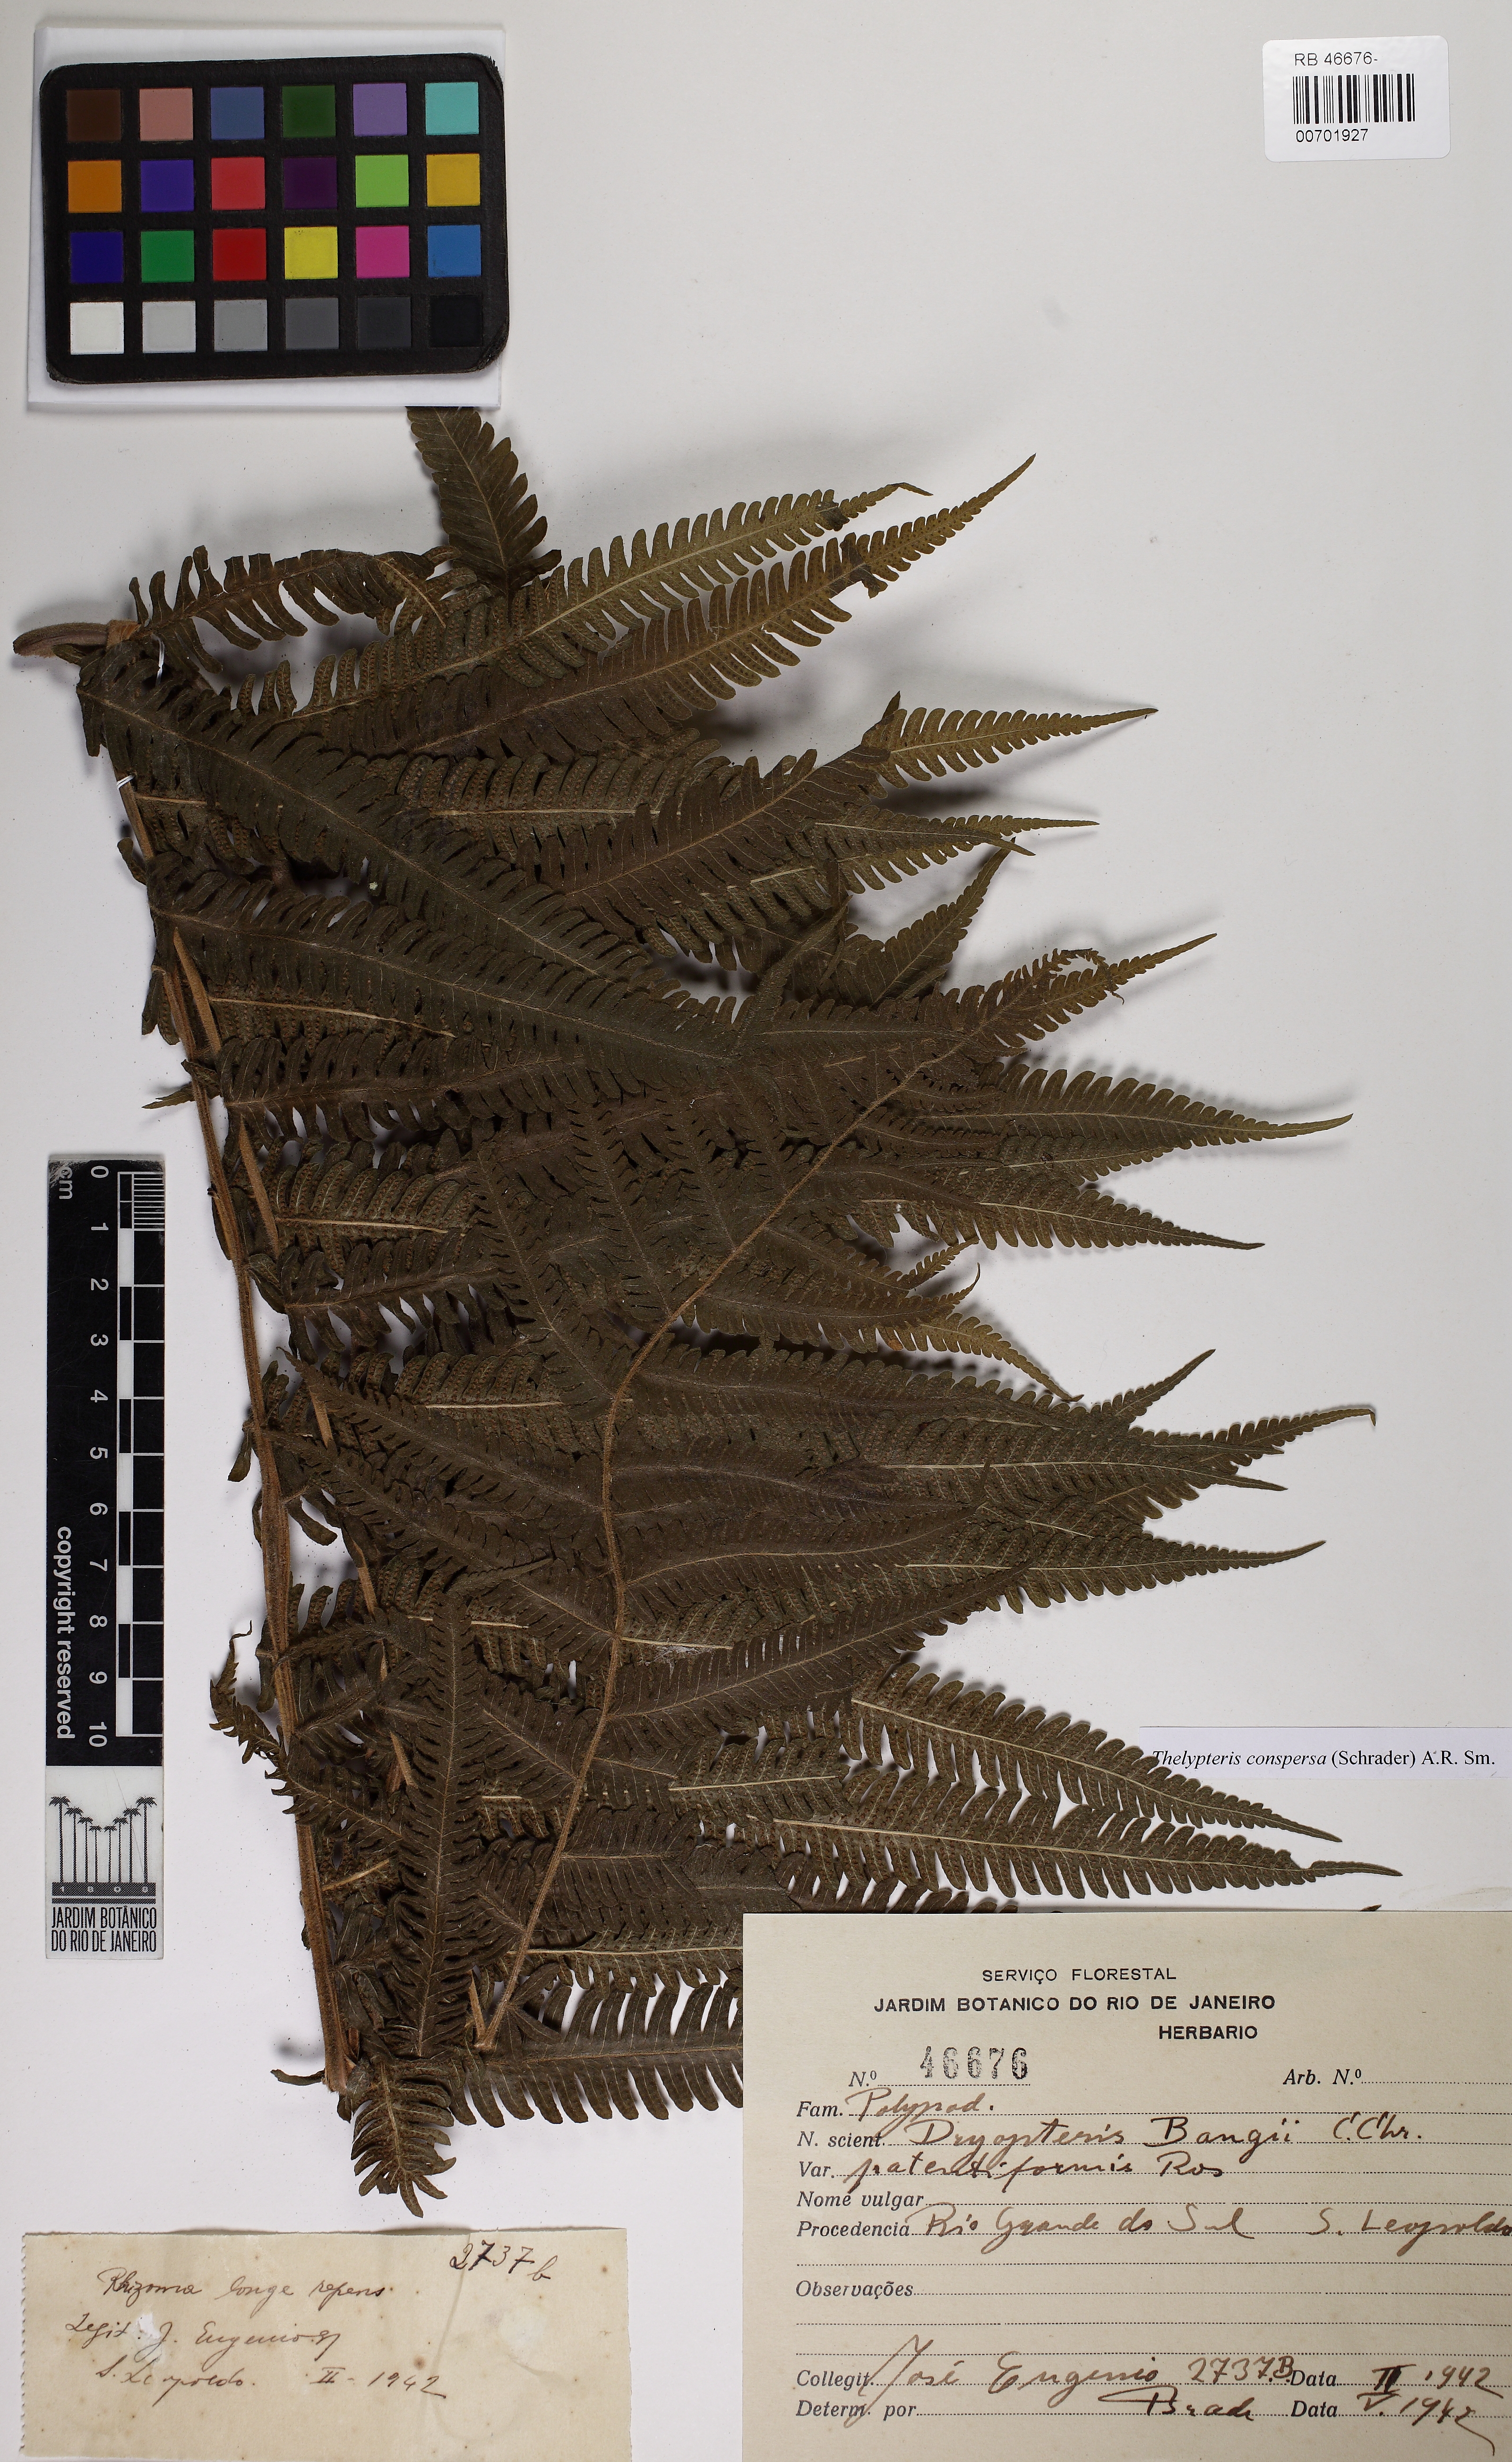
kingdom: Plantae
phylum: Tracheophyta
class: Polypodiopsida
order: Polypodiales
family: Thelypteridaceae
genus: Christella
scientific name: Christella conspersa
